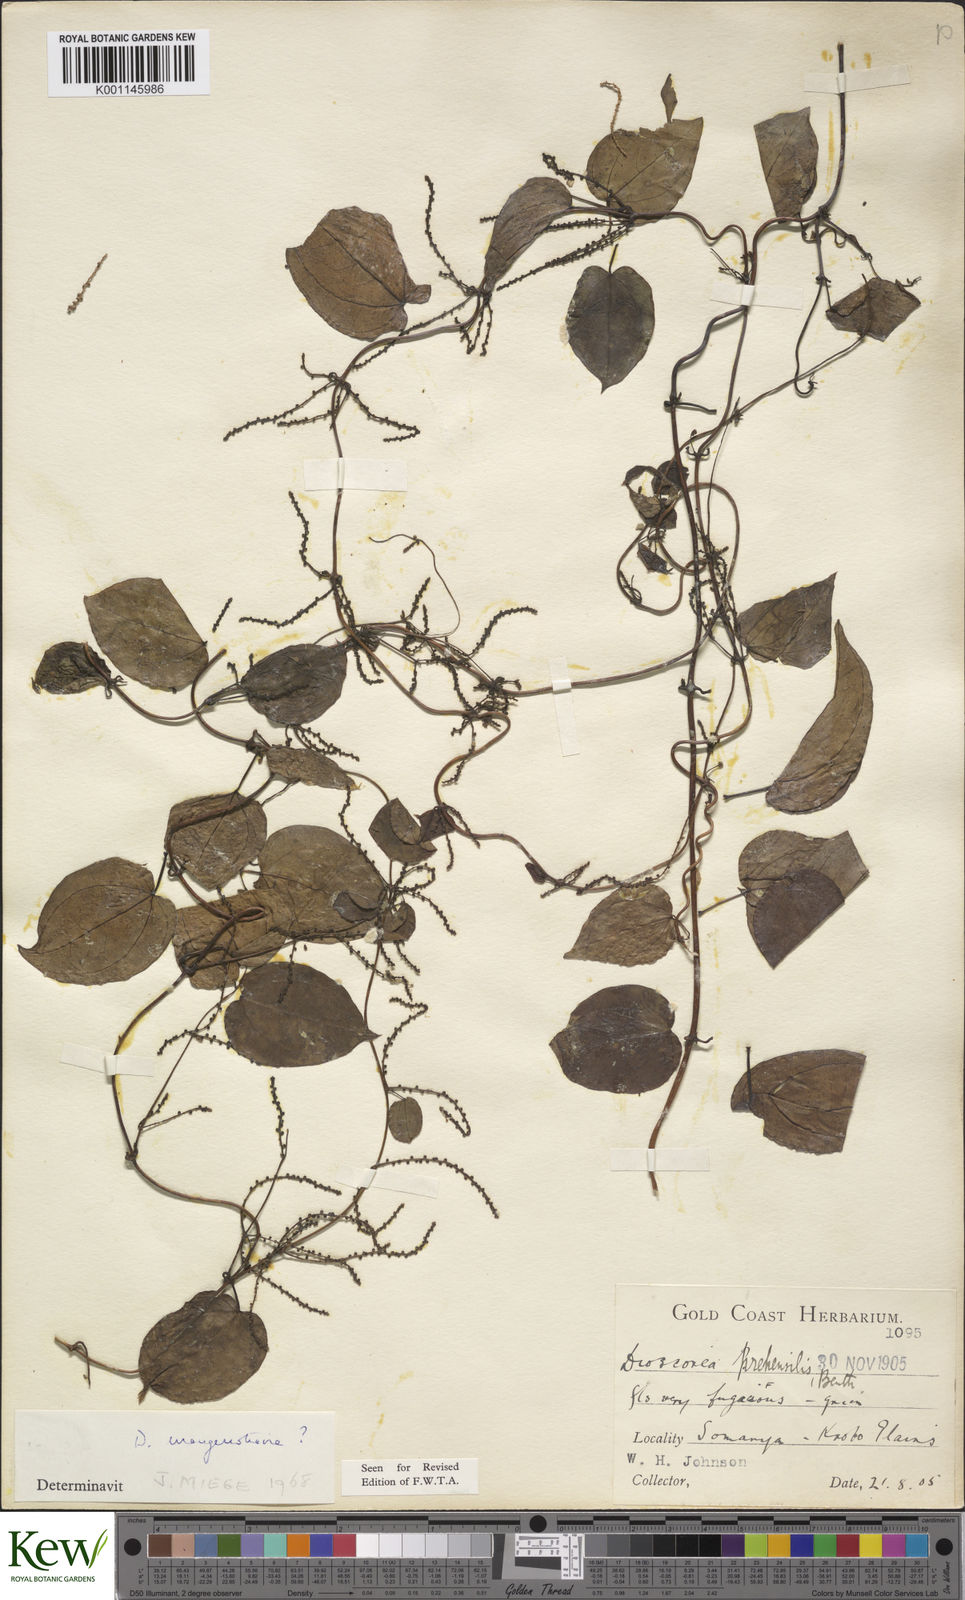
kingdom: Plantae
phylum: Tracheophyta
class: Liliopsida
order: Dioscoreales
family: Dioscoreaceae
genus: Dioscorea
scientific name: Dioscorea
